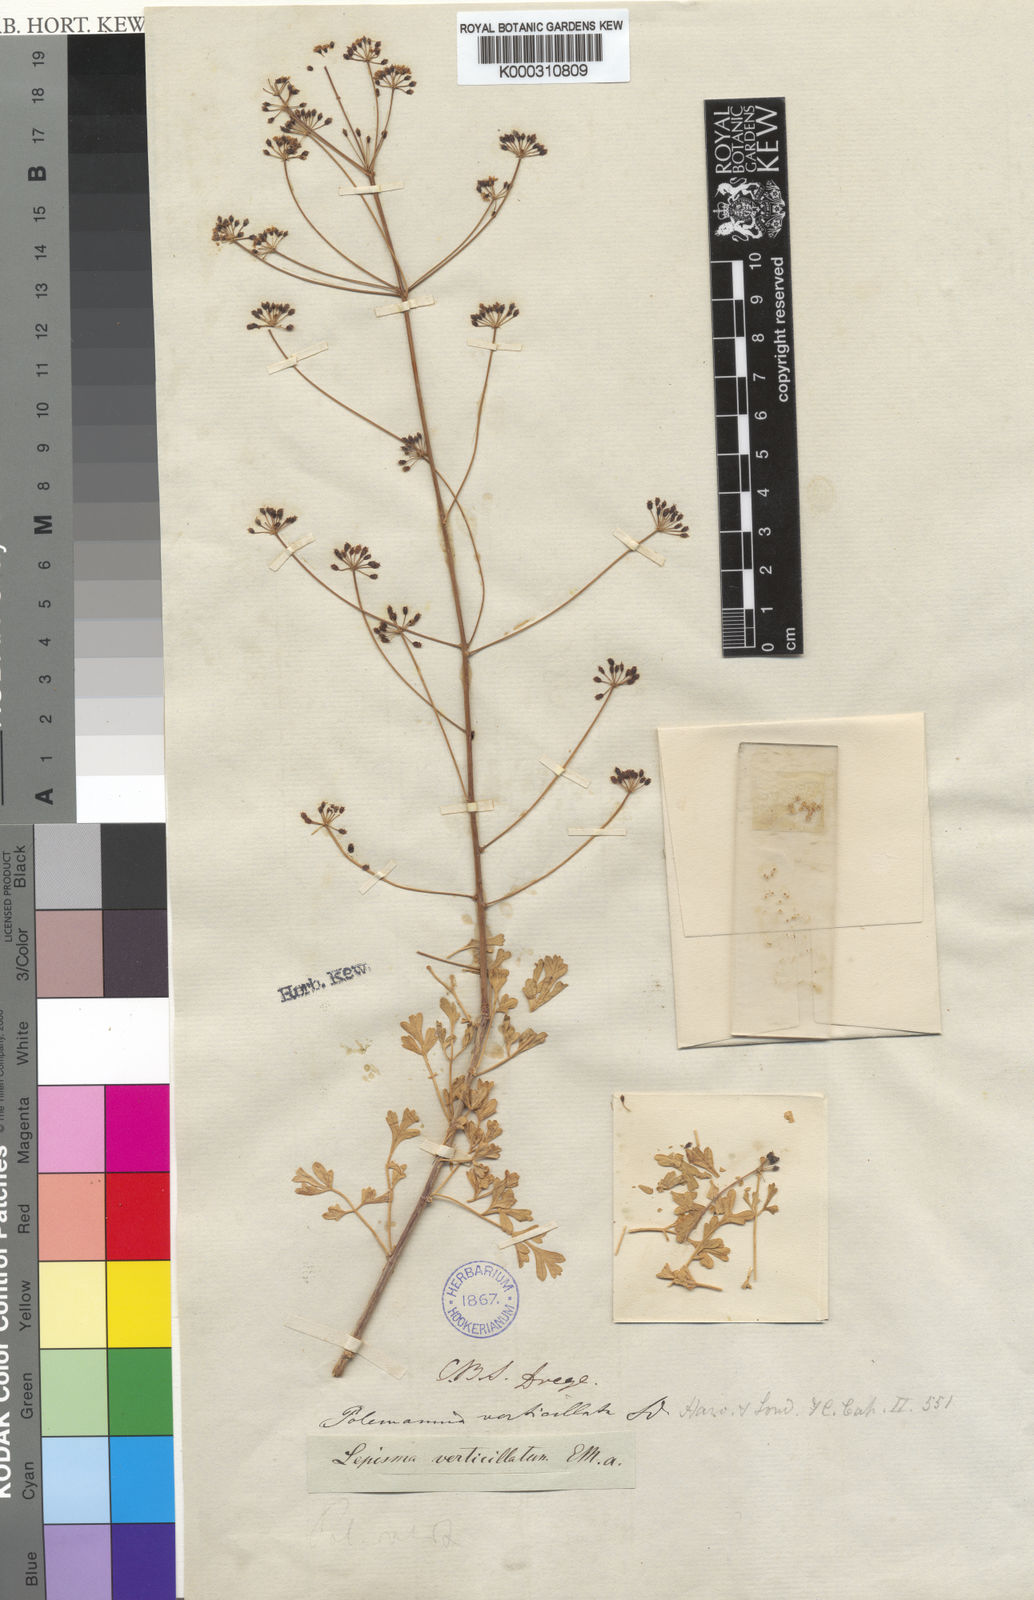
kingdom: Plantae
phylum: Tracheophyta
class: Magnoliopsida
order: Apiales
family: Apiaceae
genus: Anginon
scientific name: Anginon verticillatum
